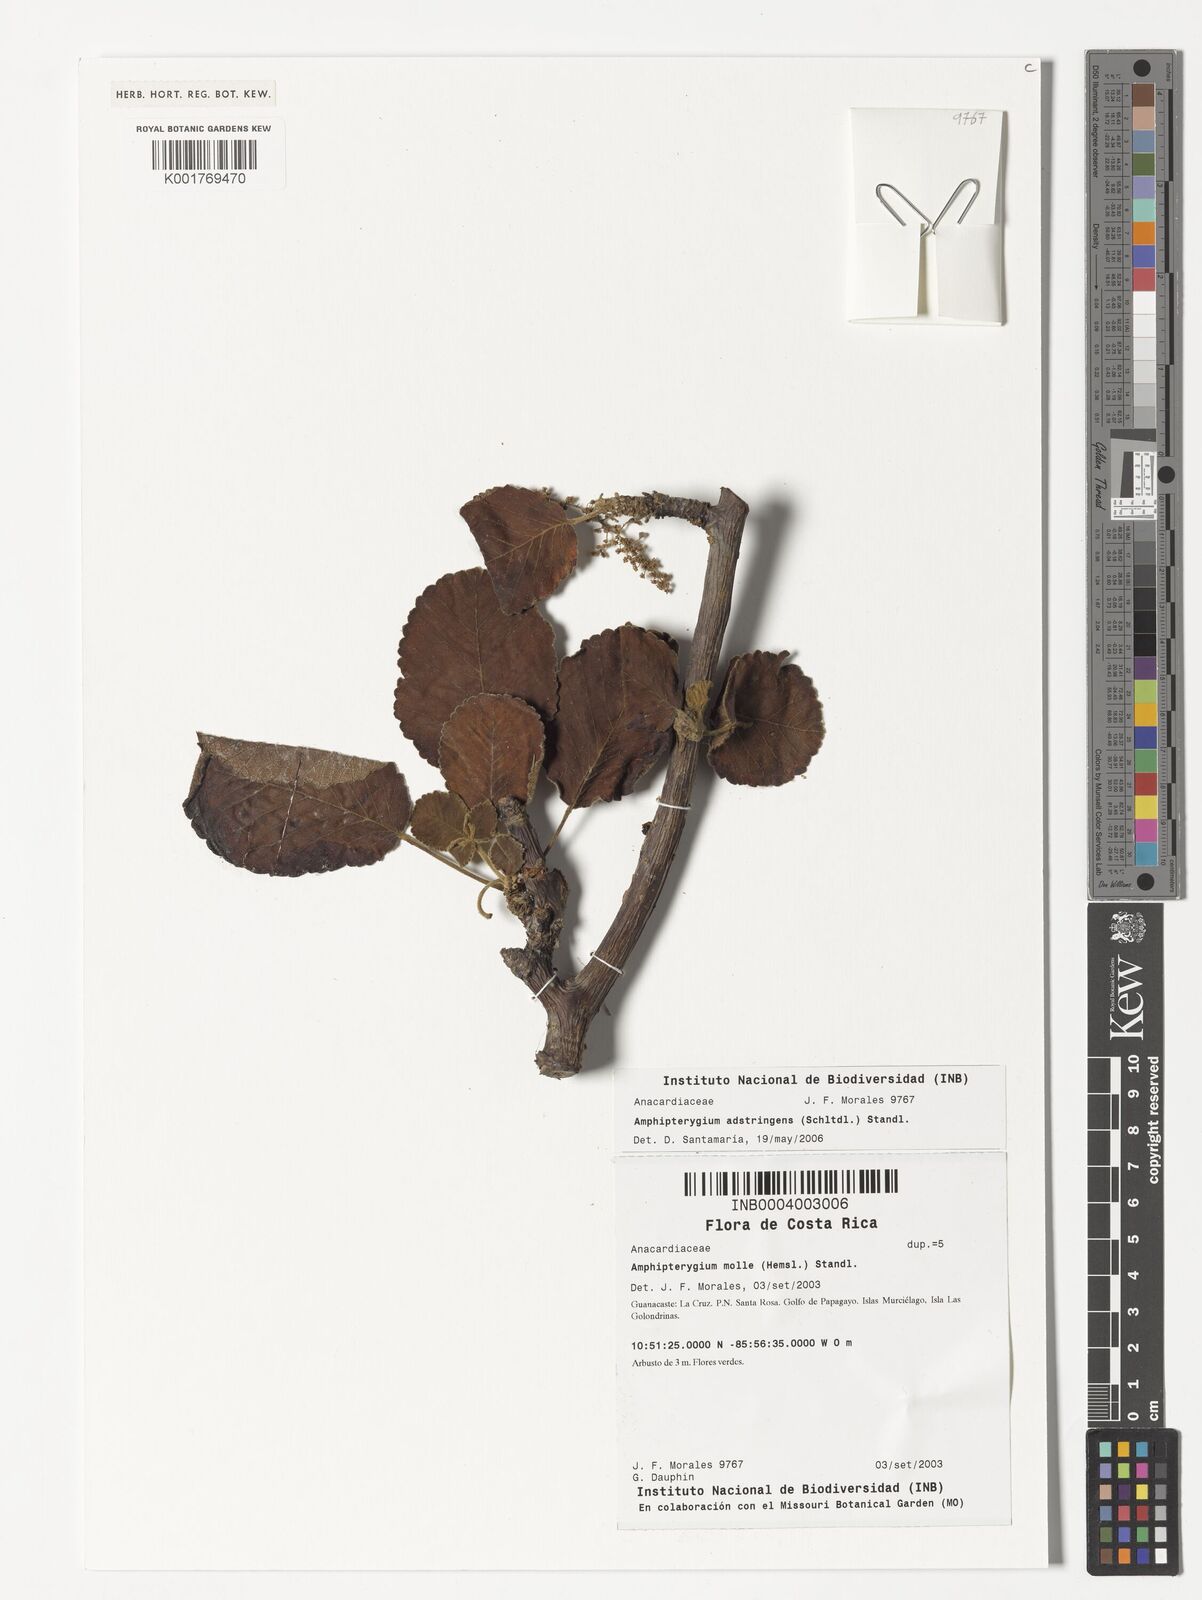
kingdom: Plantae
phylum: Tracheophyta
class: Magnoliopsida
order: Sapindales
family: Anacardiaceae
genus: Amphipterygium
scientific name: Amphipterygium adstringens
